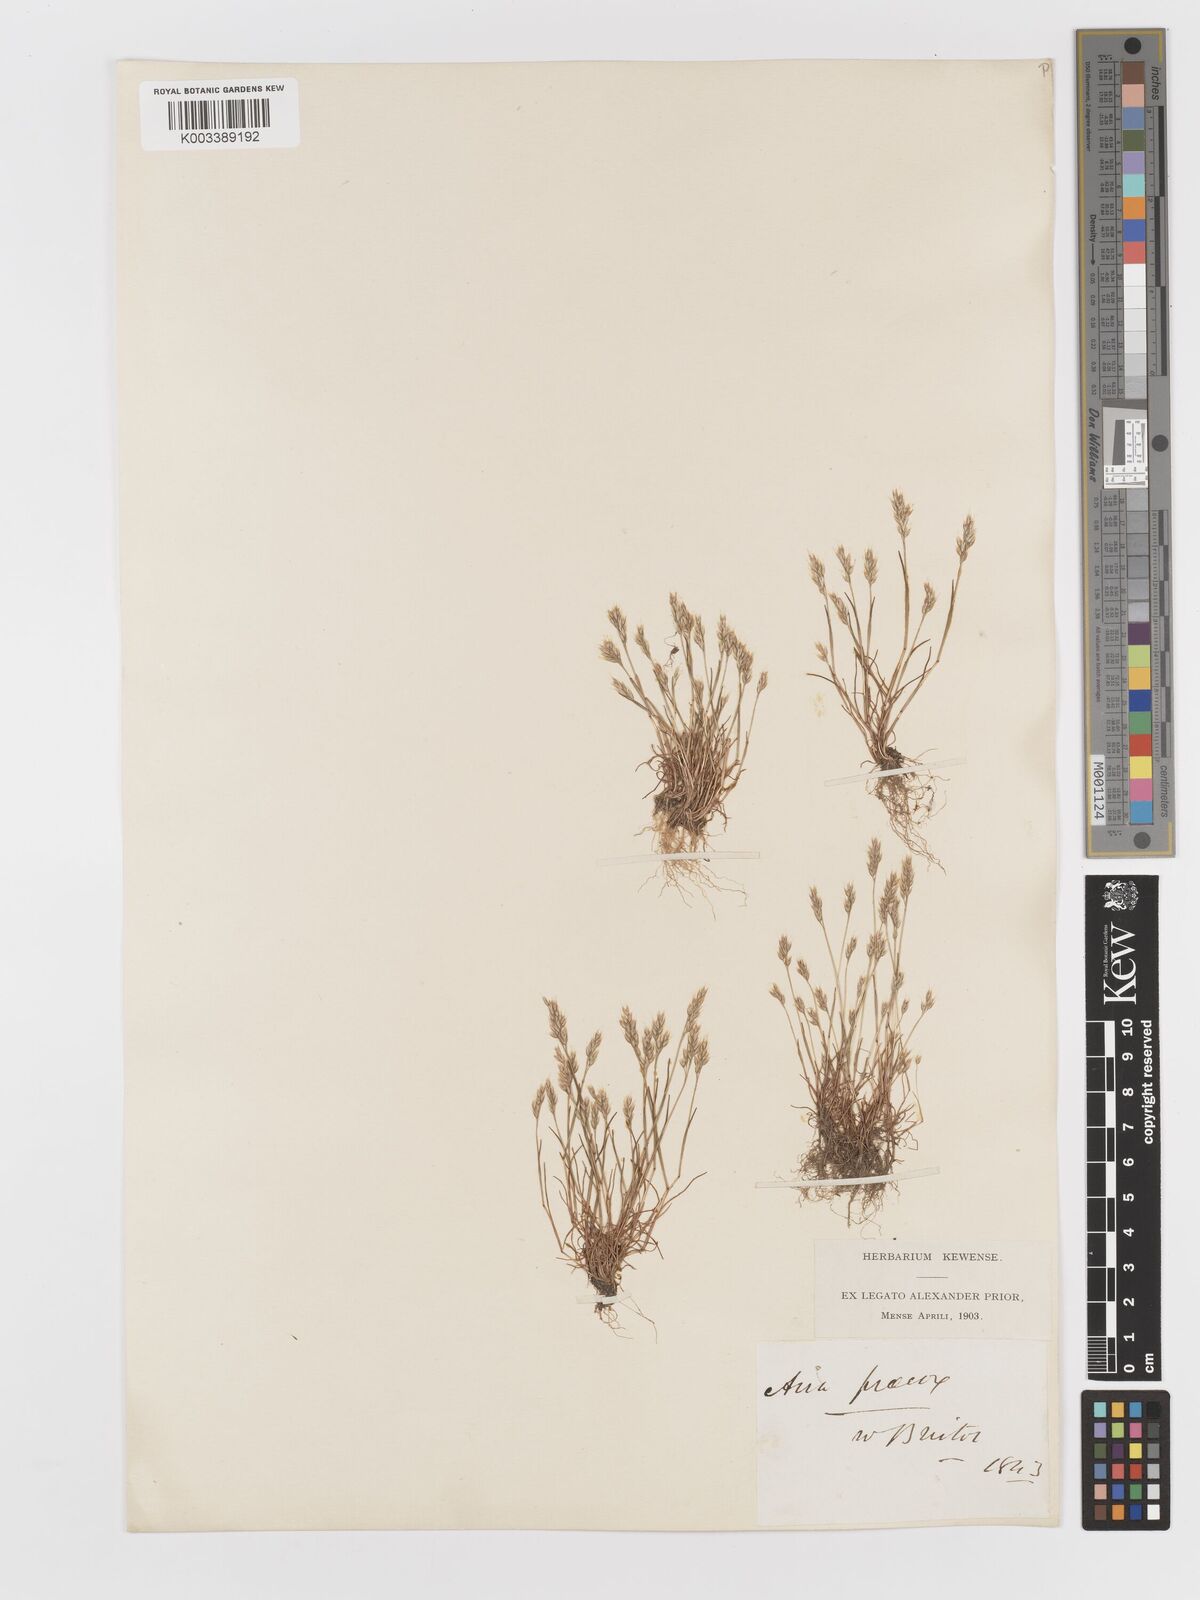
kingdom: Plantae
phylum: Tracheophyta
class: Liliopsida
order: Poales
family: Poaceae
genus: Aira
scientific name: Aira praecox
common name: Early hair-grass
